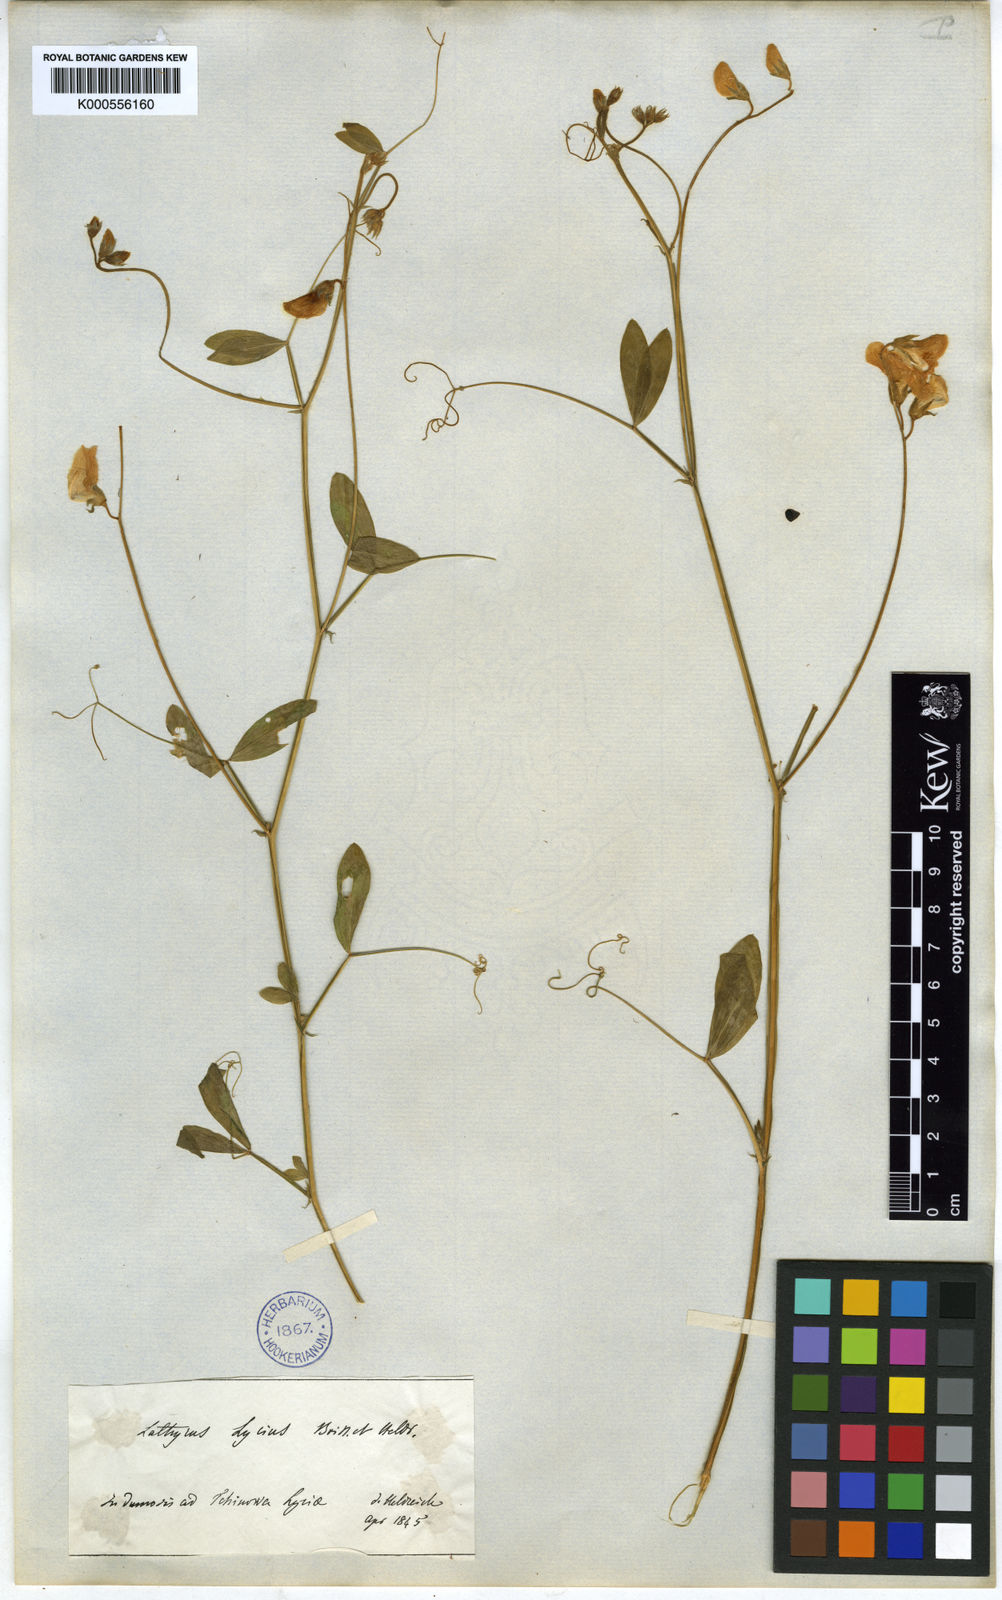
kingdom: Plantae
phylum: Tracheophyta
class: Magnoliopsida
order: Fabales
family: Fabaceae
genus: Lathyrus
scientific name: Lathyrus
